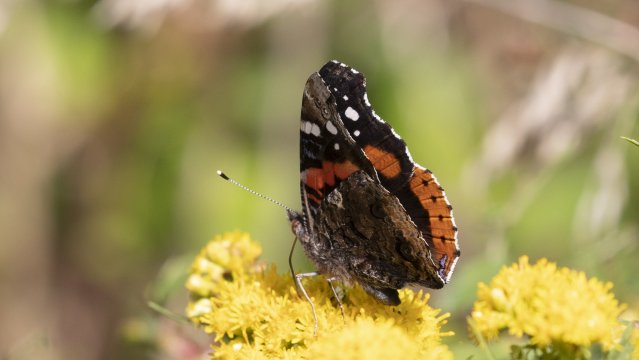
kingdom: Animalia
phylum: Arthropoda
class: Insecta
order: Lepidoptera
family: Nymphalidae
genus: Vanessa
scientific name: Vanessa atalanta
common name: Red Admiral
